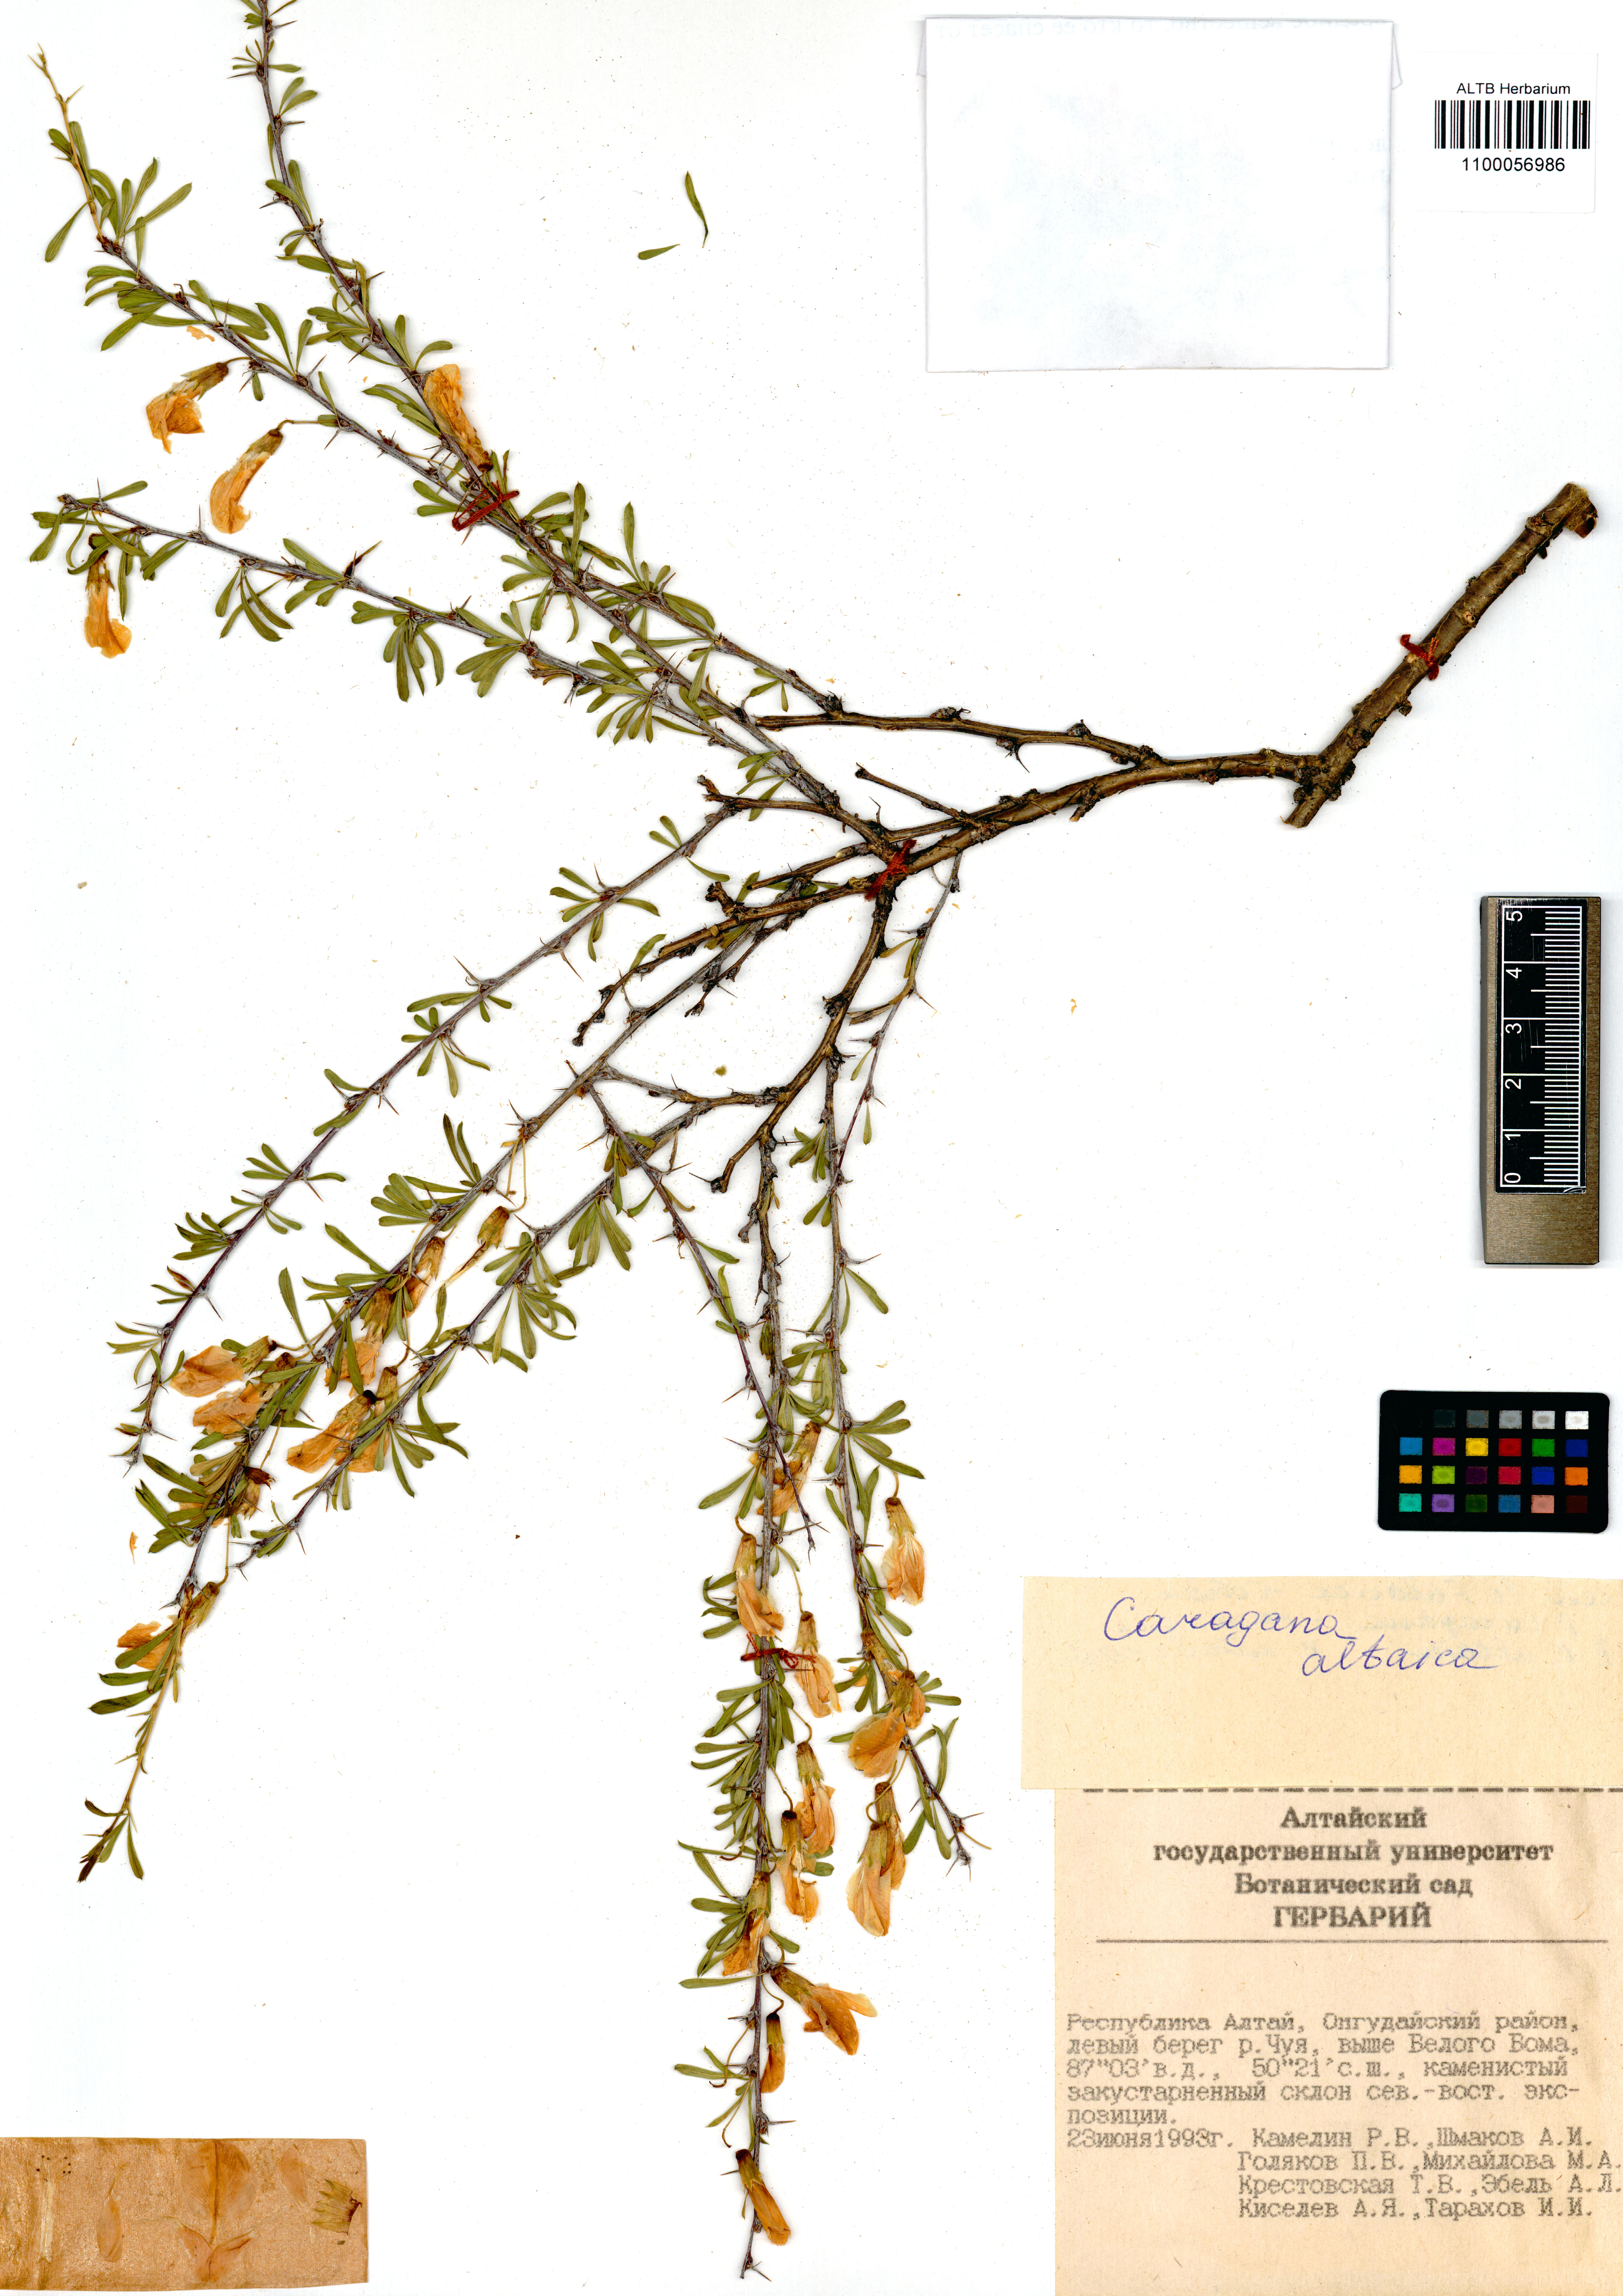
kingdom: Plantae
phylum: Tracheophyta
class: Magnoliopsida
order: Fabales
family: Fabaceae
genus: Caragana
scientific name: Caragana pygmaea
